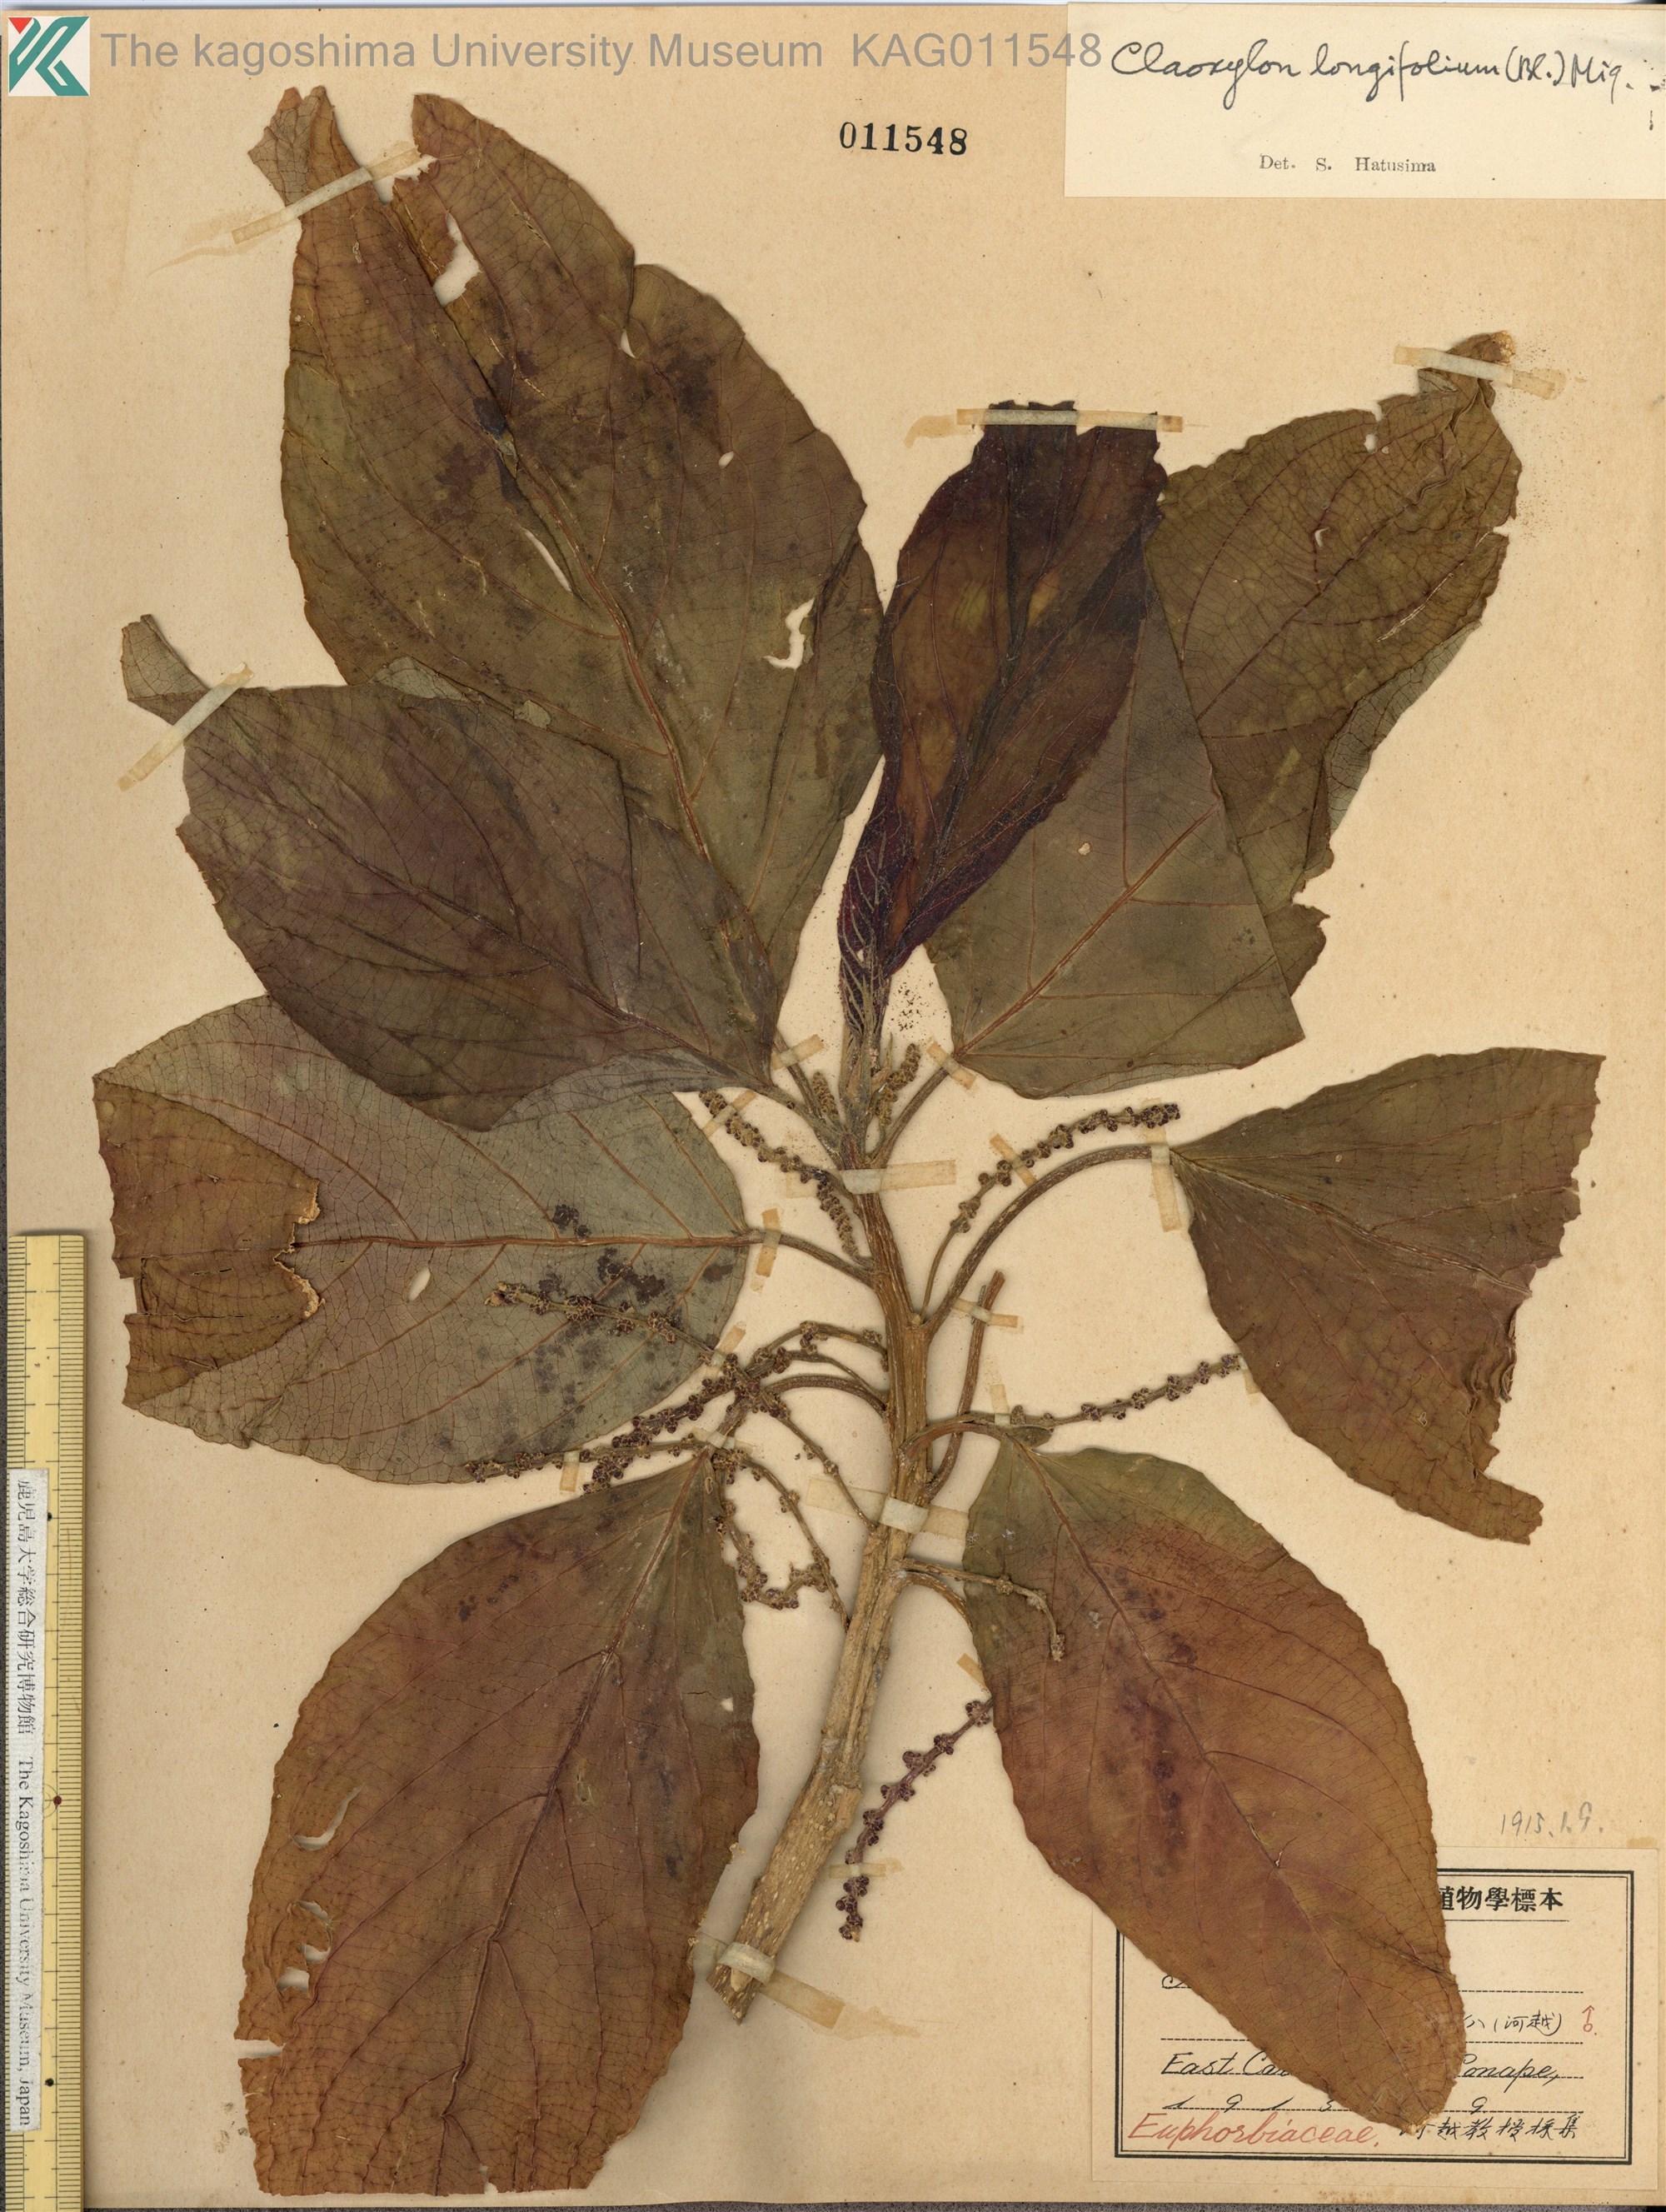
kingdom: Plantae
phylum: Tracheophyta
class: Magnoliopsida
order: Malpighiales
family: Euphorbiaceae
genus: Claoxylon
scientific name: Claoxylon longifolium
